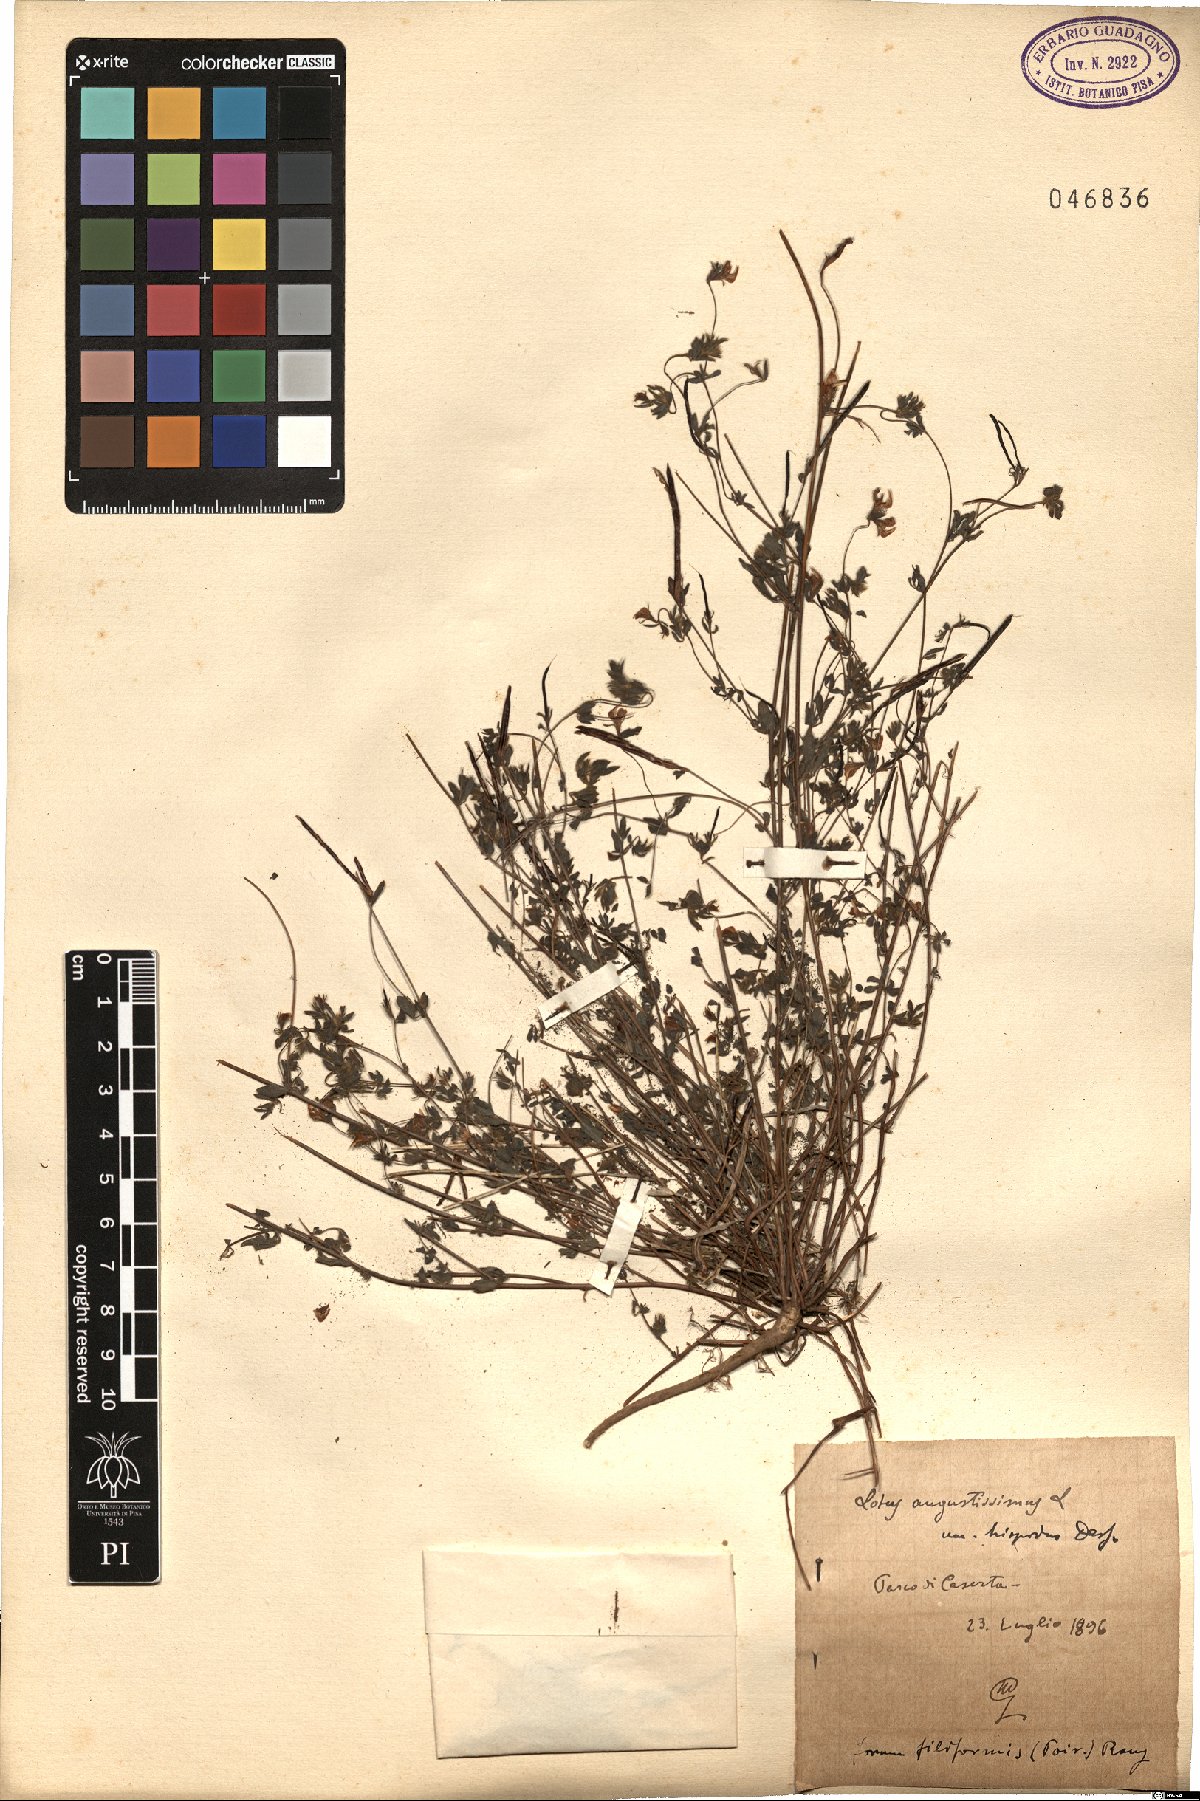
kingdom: Plantae
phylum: Tracheophyta
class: Magnoliopsida
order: Fabales
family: Fabaceae
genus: Lotus
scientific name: Lotus parviflorus
